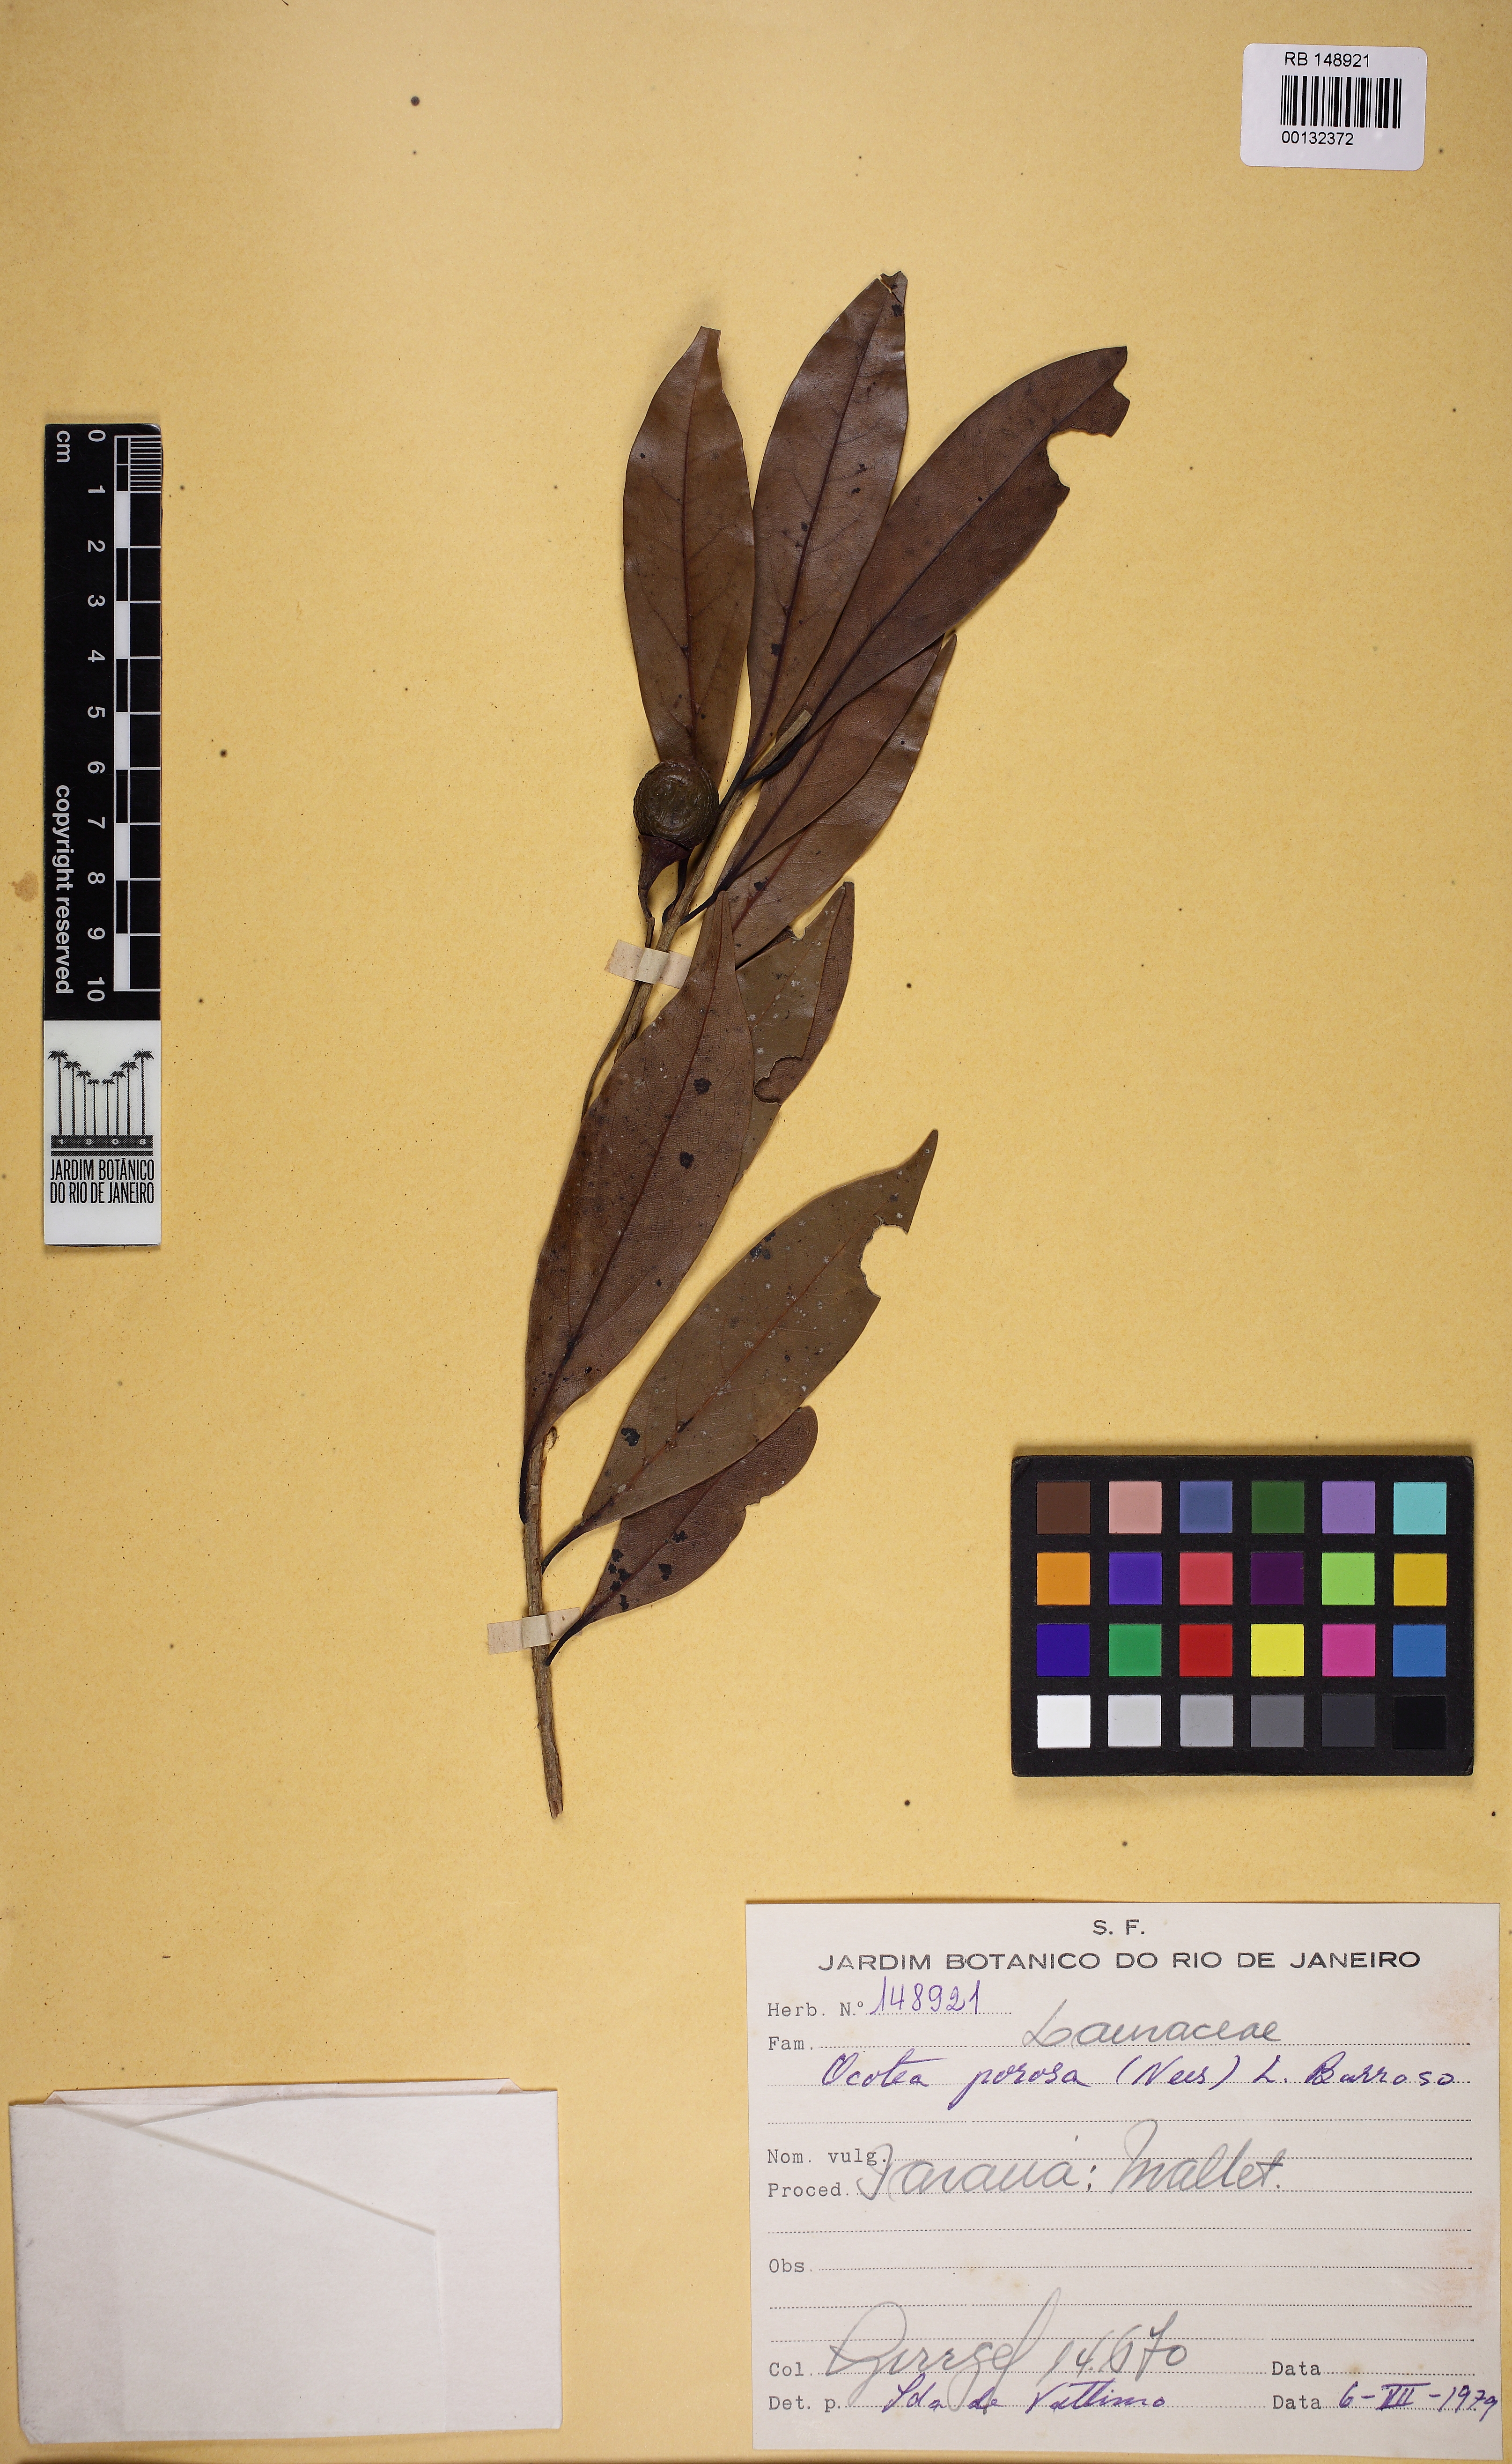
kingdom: Plantae
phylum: Tracheophyta
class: Magnoliopsida
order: Laurales
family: Lauraceae
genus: Ocotea
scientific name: Ocotea porosa
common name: Brazilian-walnut
